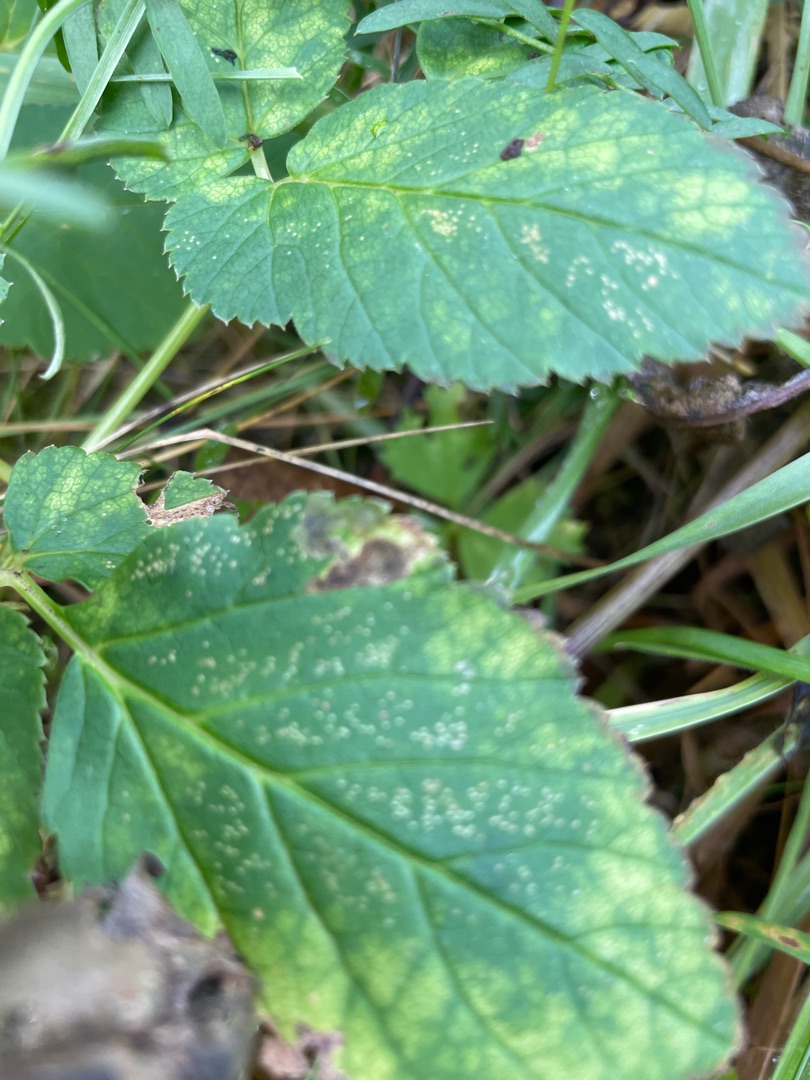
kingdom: Plantae
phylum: Tracheophyta
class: Magnoliopsida
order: Apiales
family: Apiaceae
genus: Aegopodium
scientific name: Aegopodium podagraria
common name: Skvalderkål
